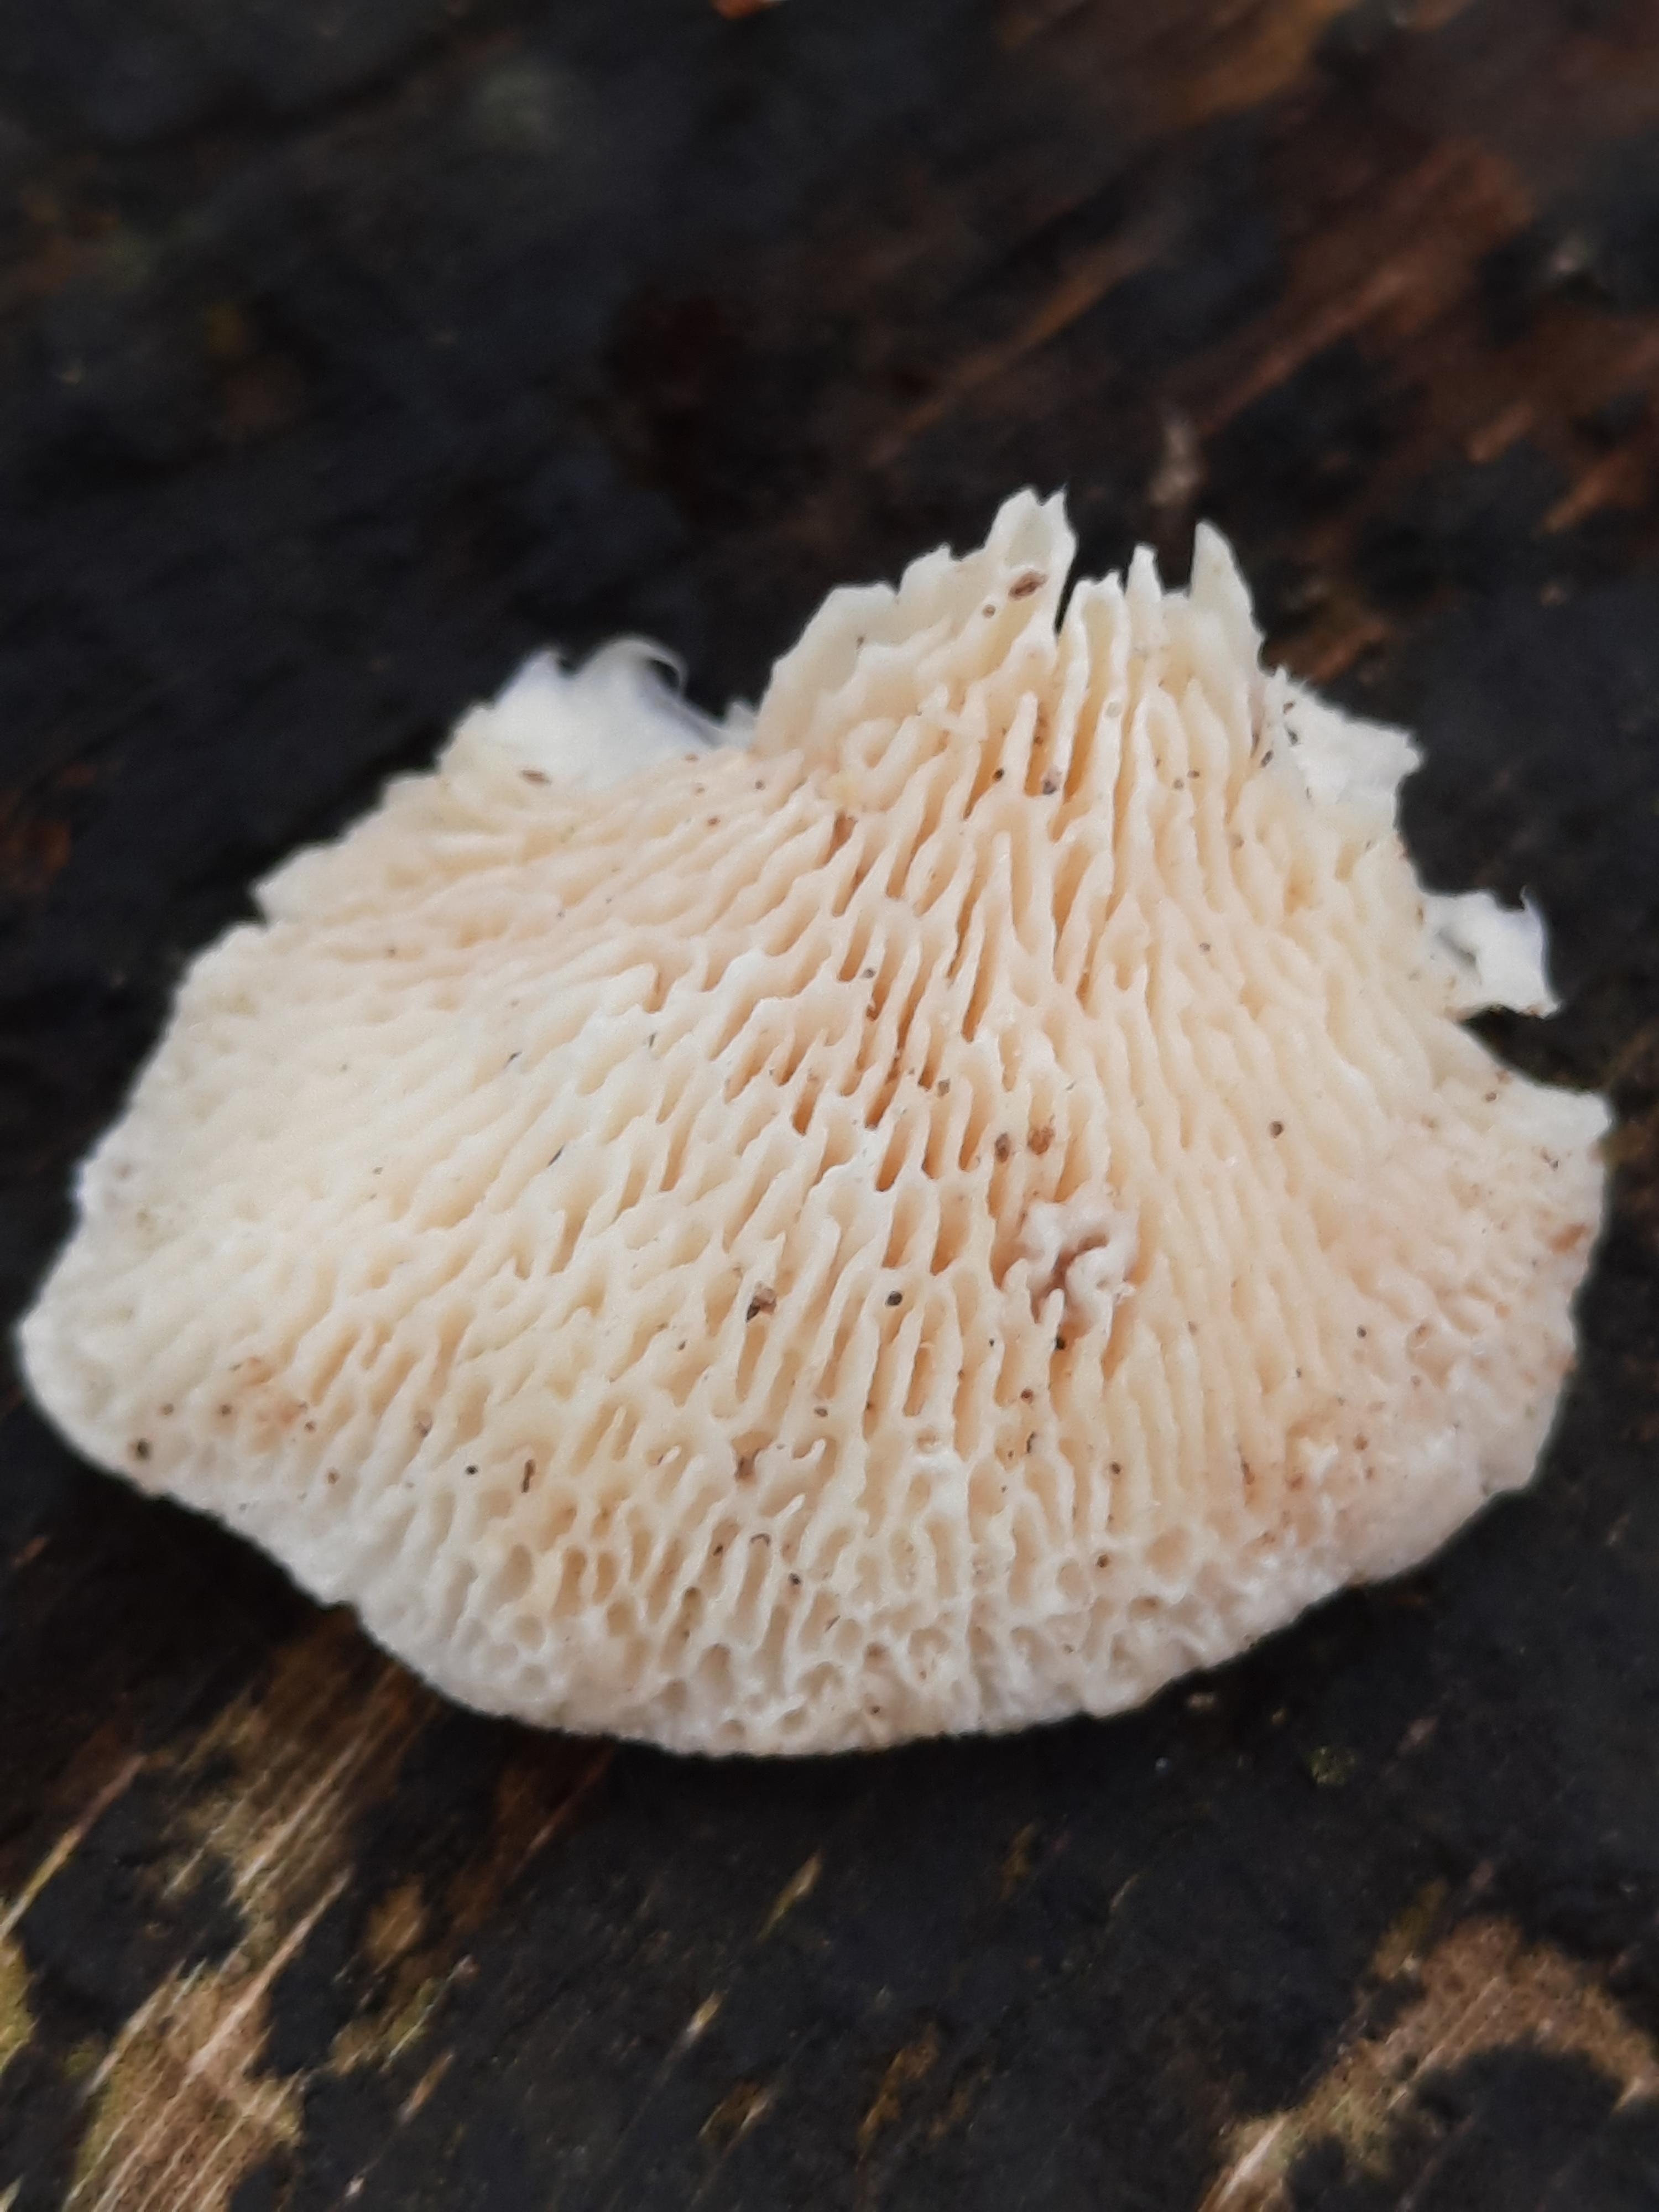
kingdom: Fungi
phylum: Basidiomycota
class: Agaricomycetes
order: Polyporales
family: Polyporaceae
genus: Trametes
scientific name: Trametes gibbosa
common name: puklet læderporesvamp
